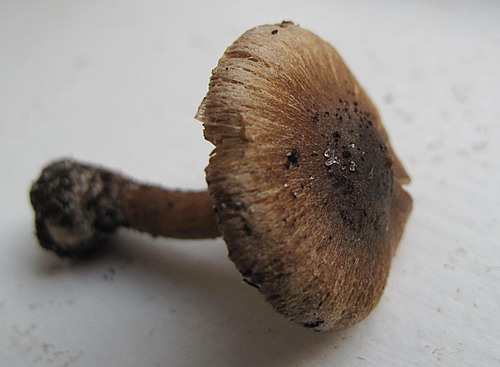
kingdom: Fungi
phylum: Basidiomycota
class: Agaricomycetes
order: Agaricales
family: Inocybaceae
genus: Inocybe
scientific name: Inocybe
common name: trævlhat
